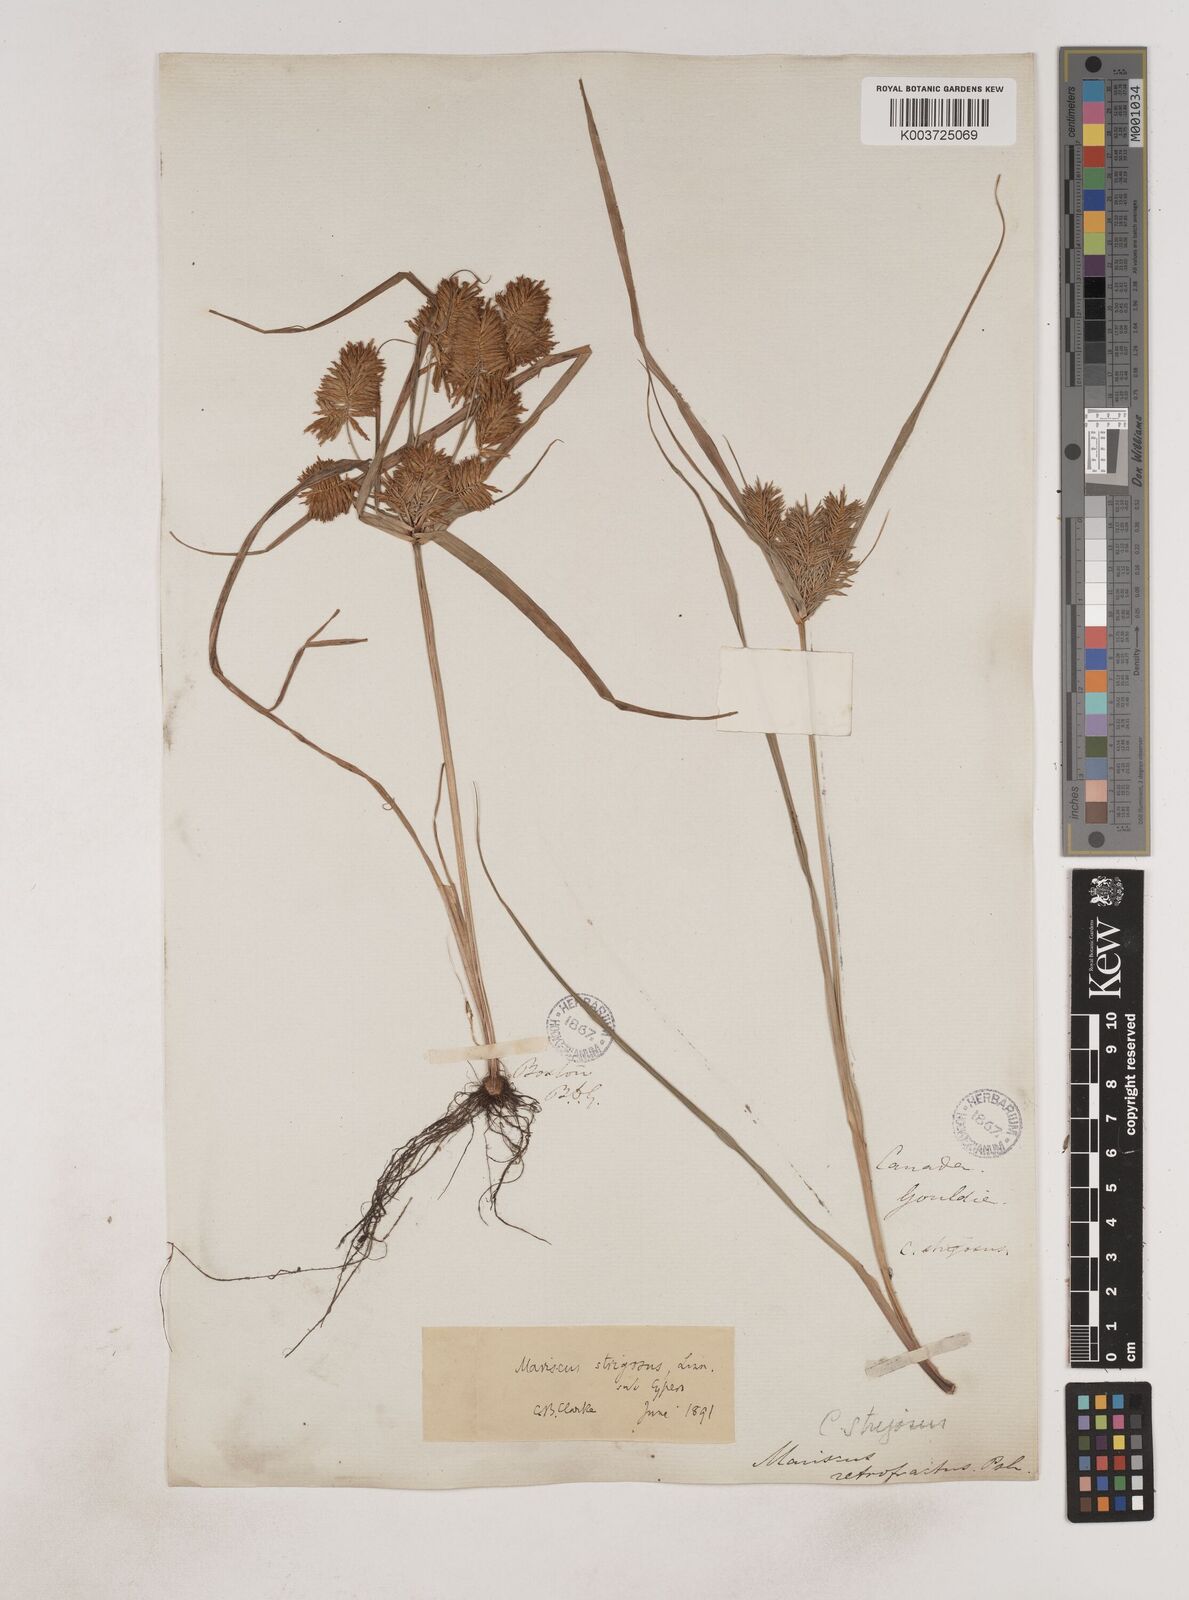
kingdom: Plantae
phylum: Tracheophyta
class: Liliopsida
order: Poales
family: Cyperaceae
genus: Cyperus
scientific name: Cyperus strigosus
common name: False nutsedge
